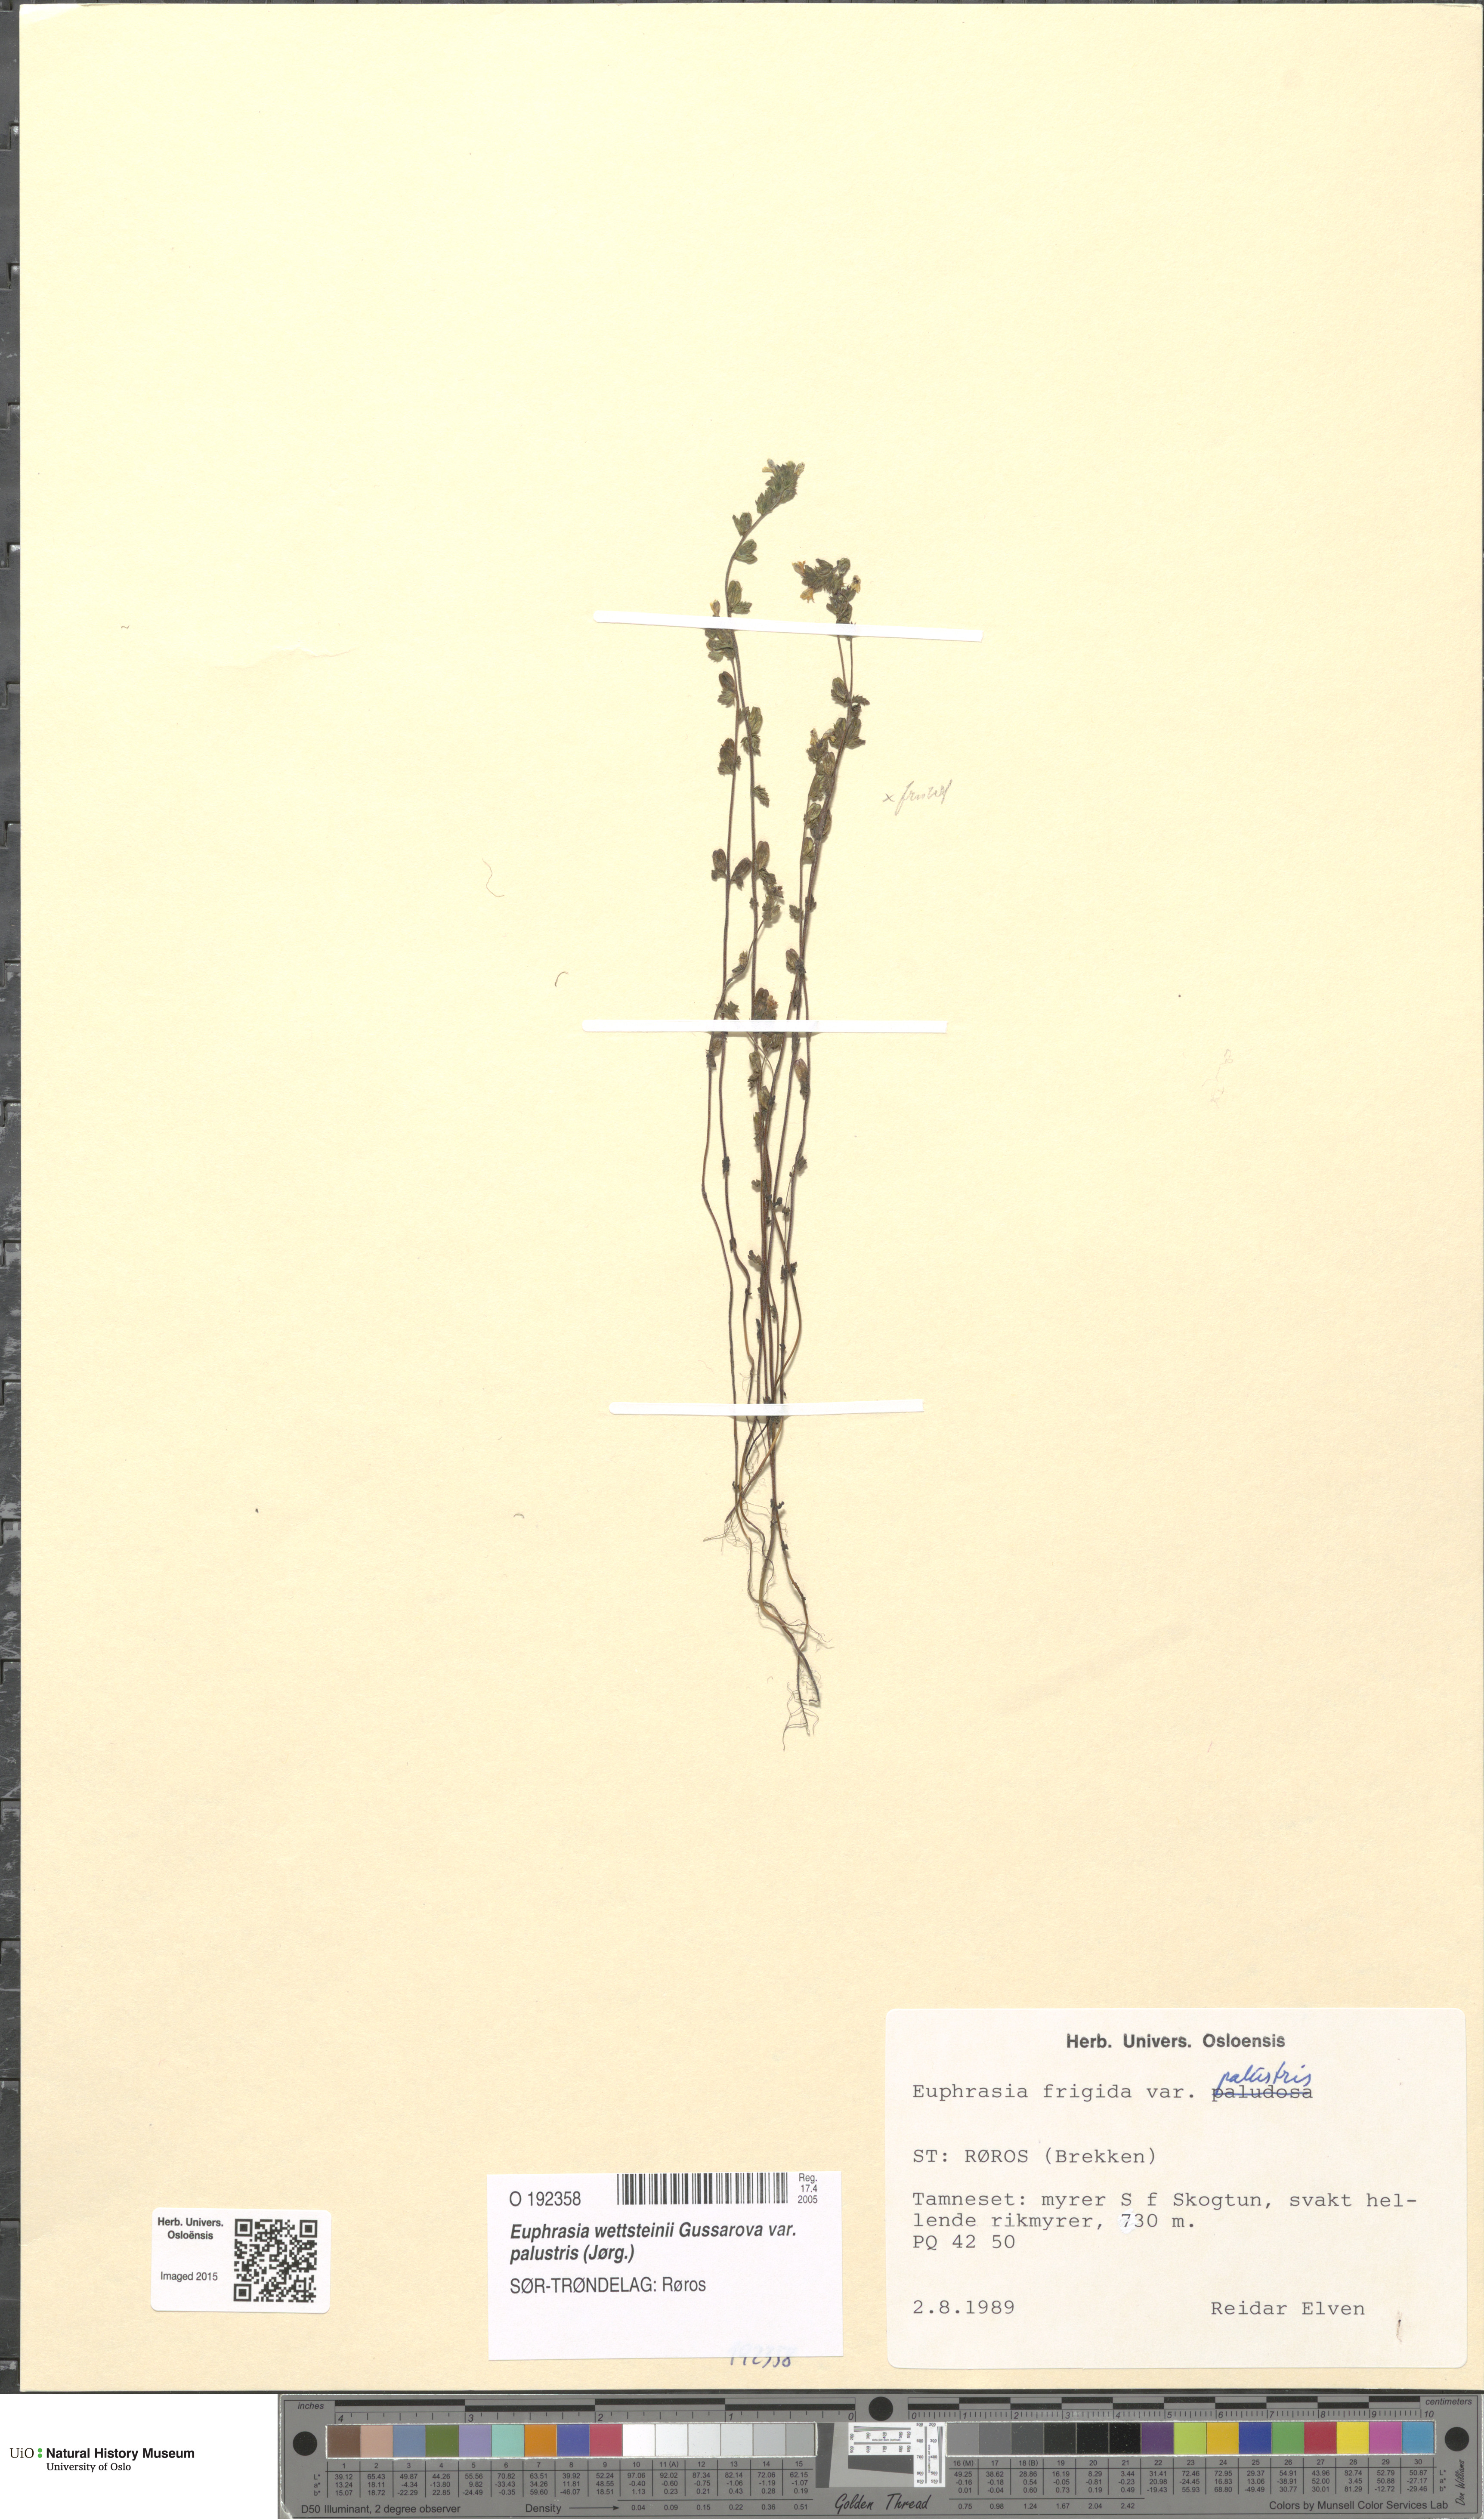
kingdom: Plantae
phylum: Tracheophyta
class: Magnoliopsida
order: Lamiales
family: Orobanchaceae
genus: Euphrasia
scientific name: Euphrasia wettsteinii
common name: Wettstein's eyebright
